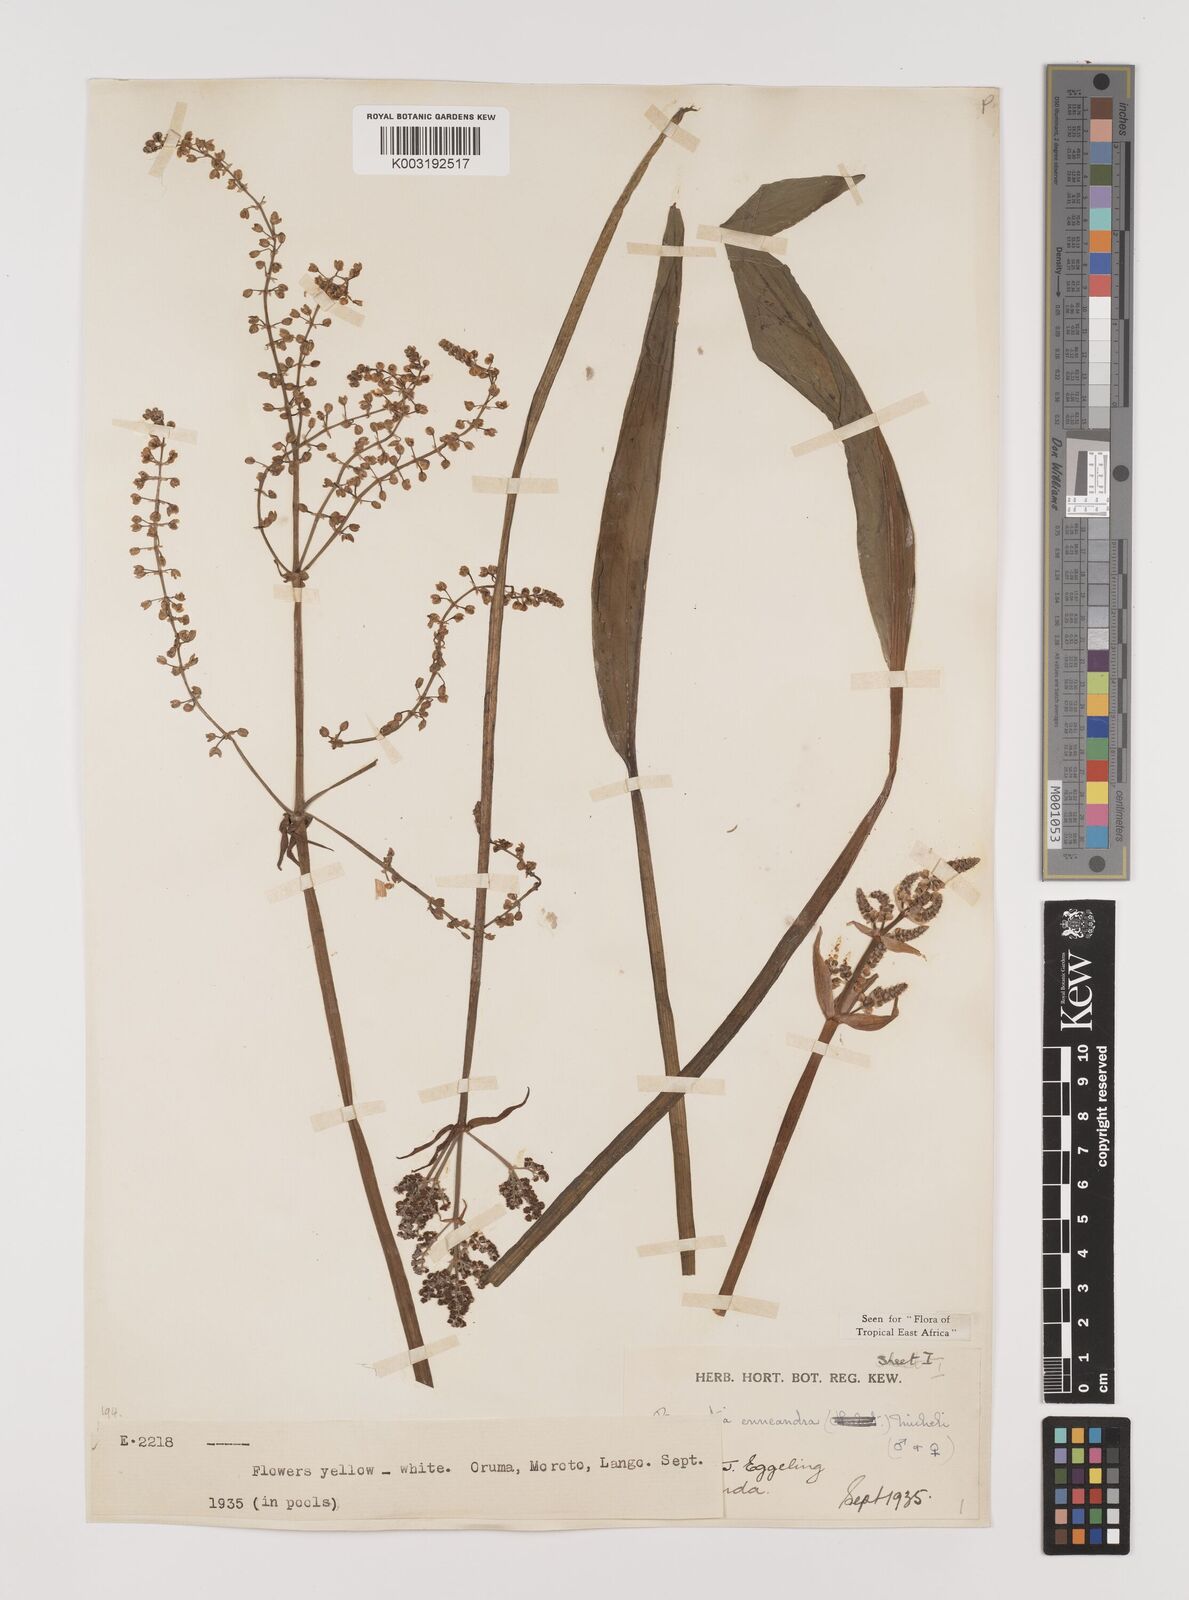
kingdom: Plantae
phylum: Tracheophyta
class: Liliopsida
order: Alismatales
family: Alismataceae
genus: Burnatia
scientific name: Burnatia enneandra
